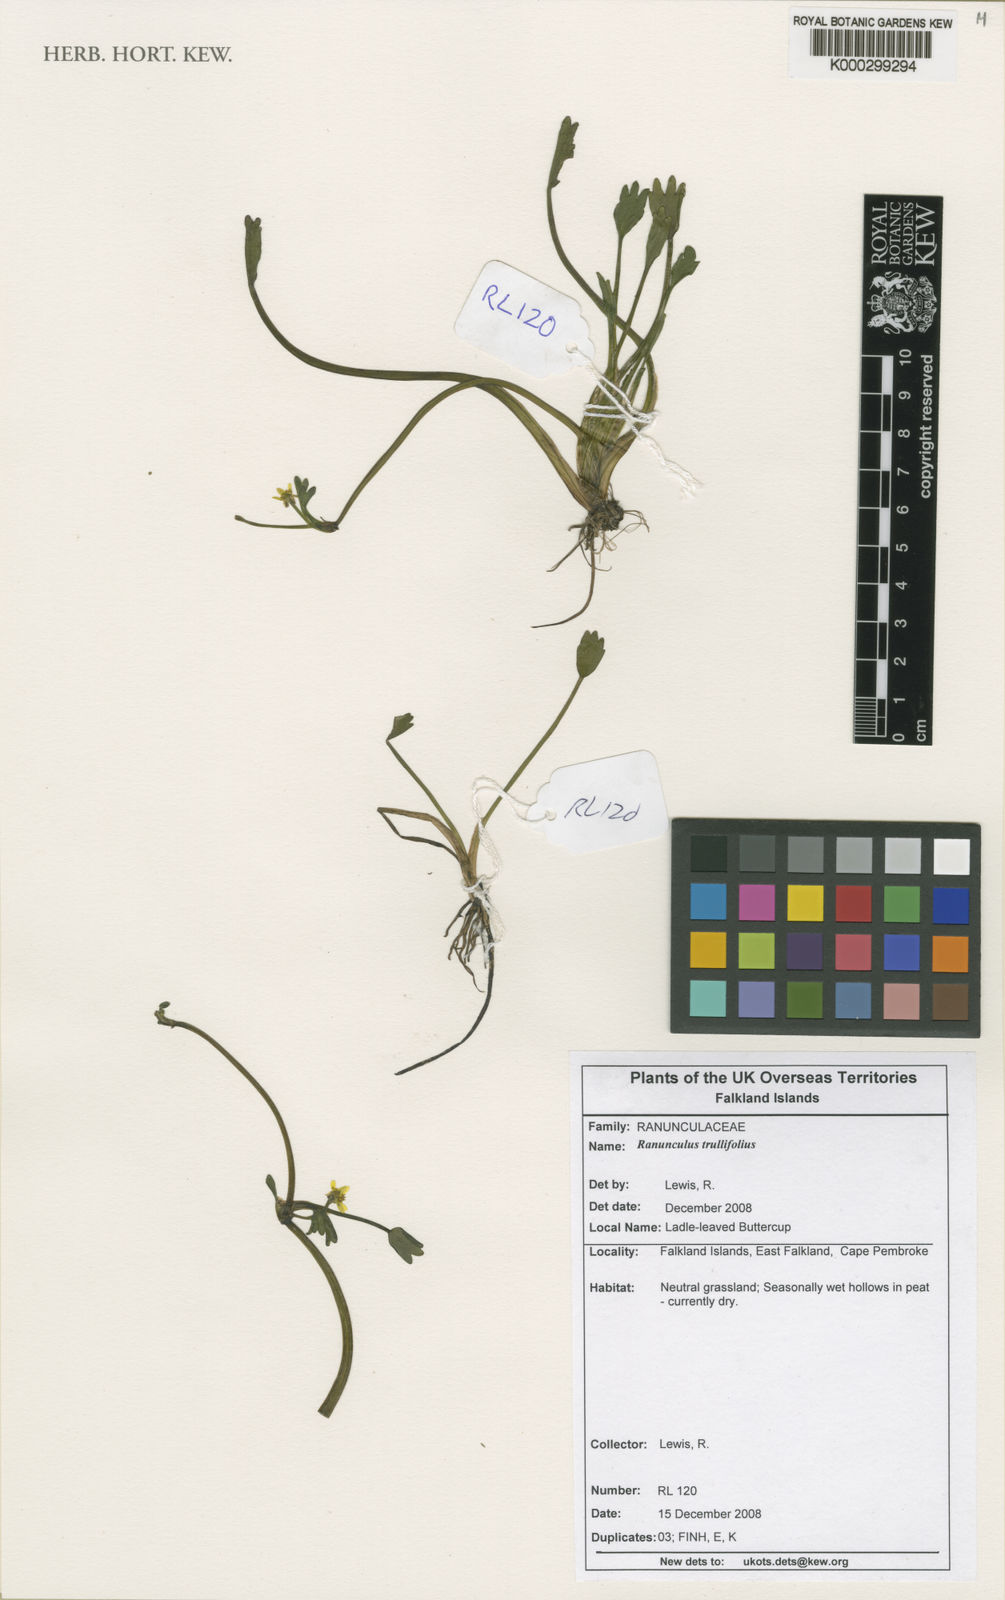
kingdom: Plantae
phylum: Tracheophyta
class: Magnoliopsida
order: Ranunculales
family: Ranunculaceae
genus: Ranunculus
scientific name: Ranunculus trullifolius
